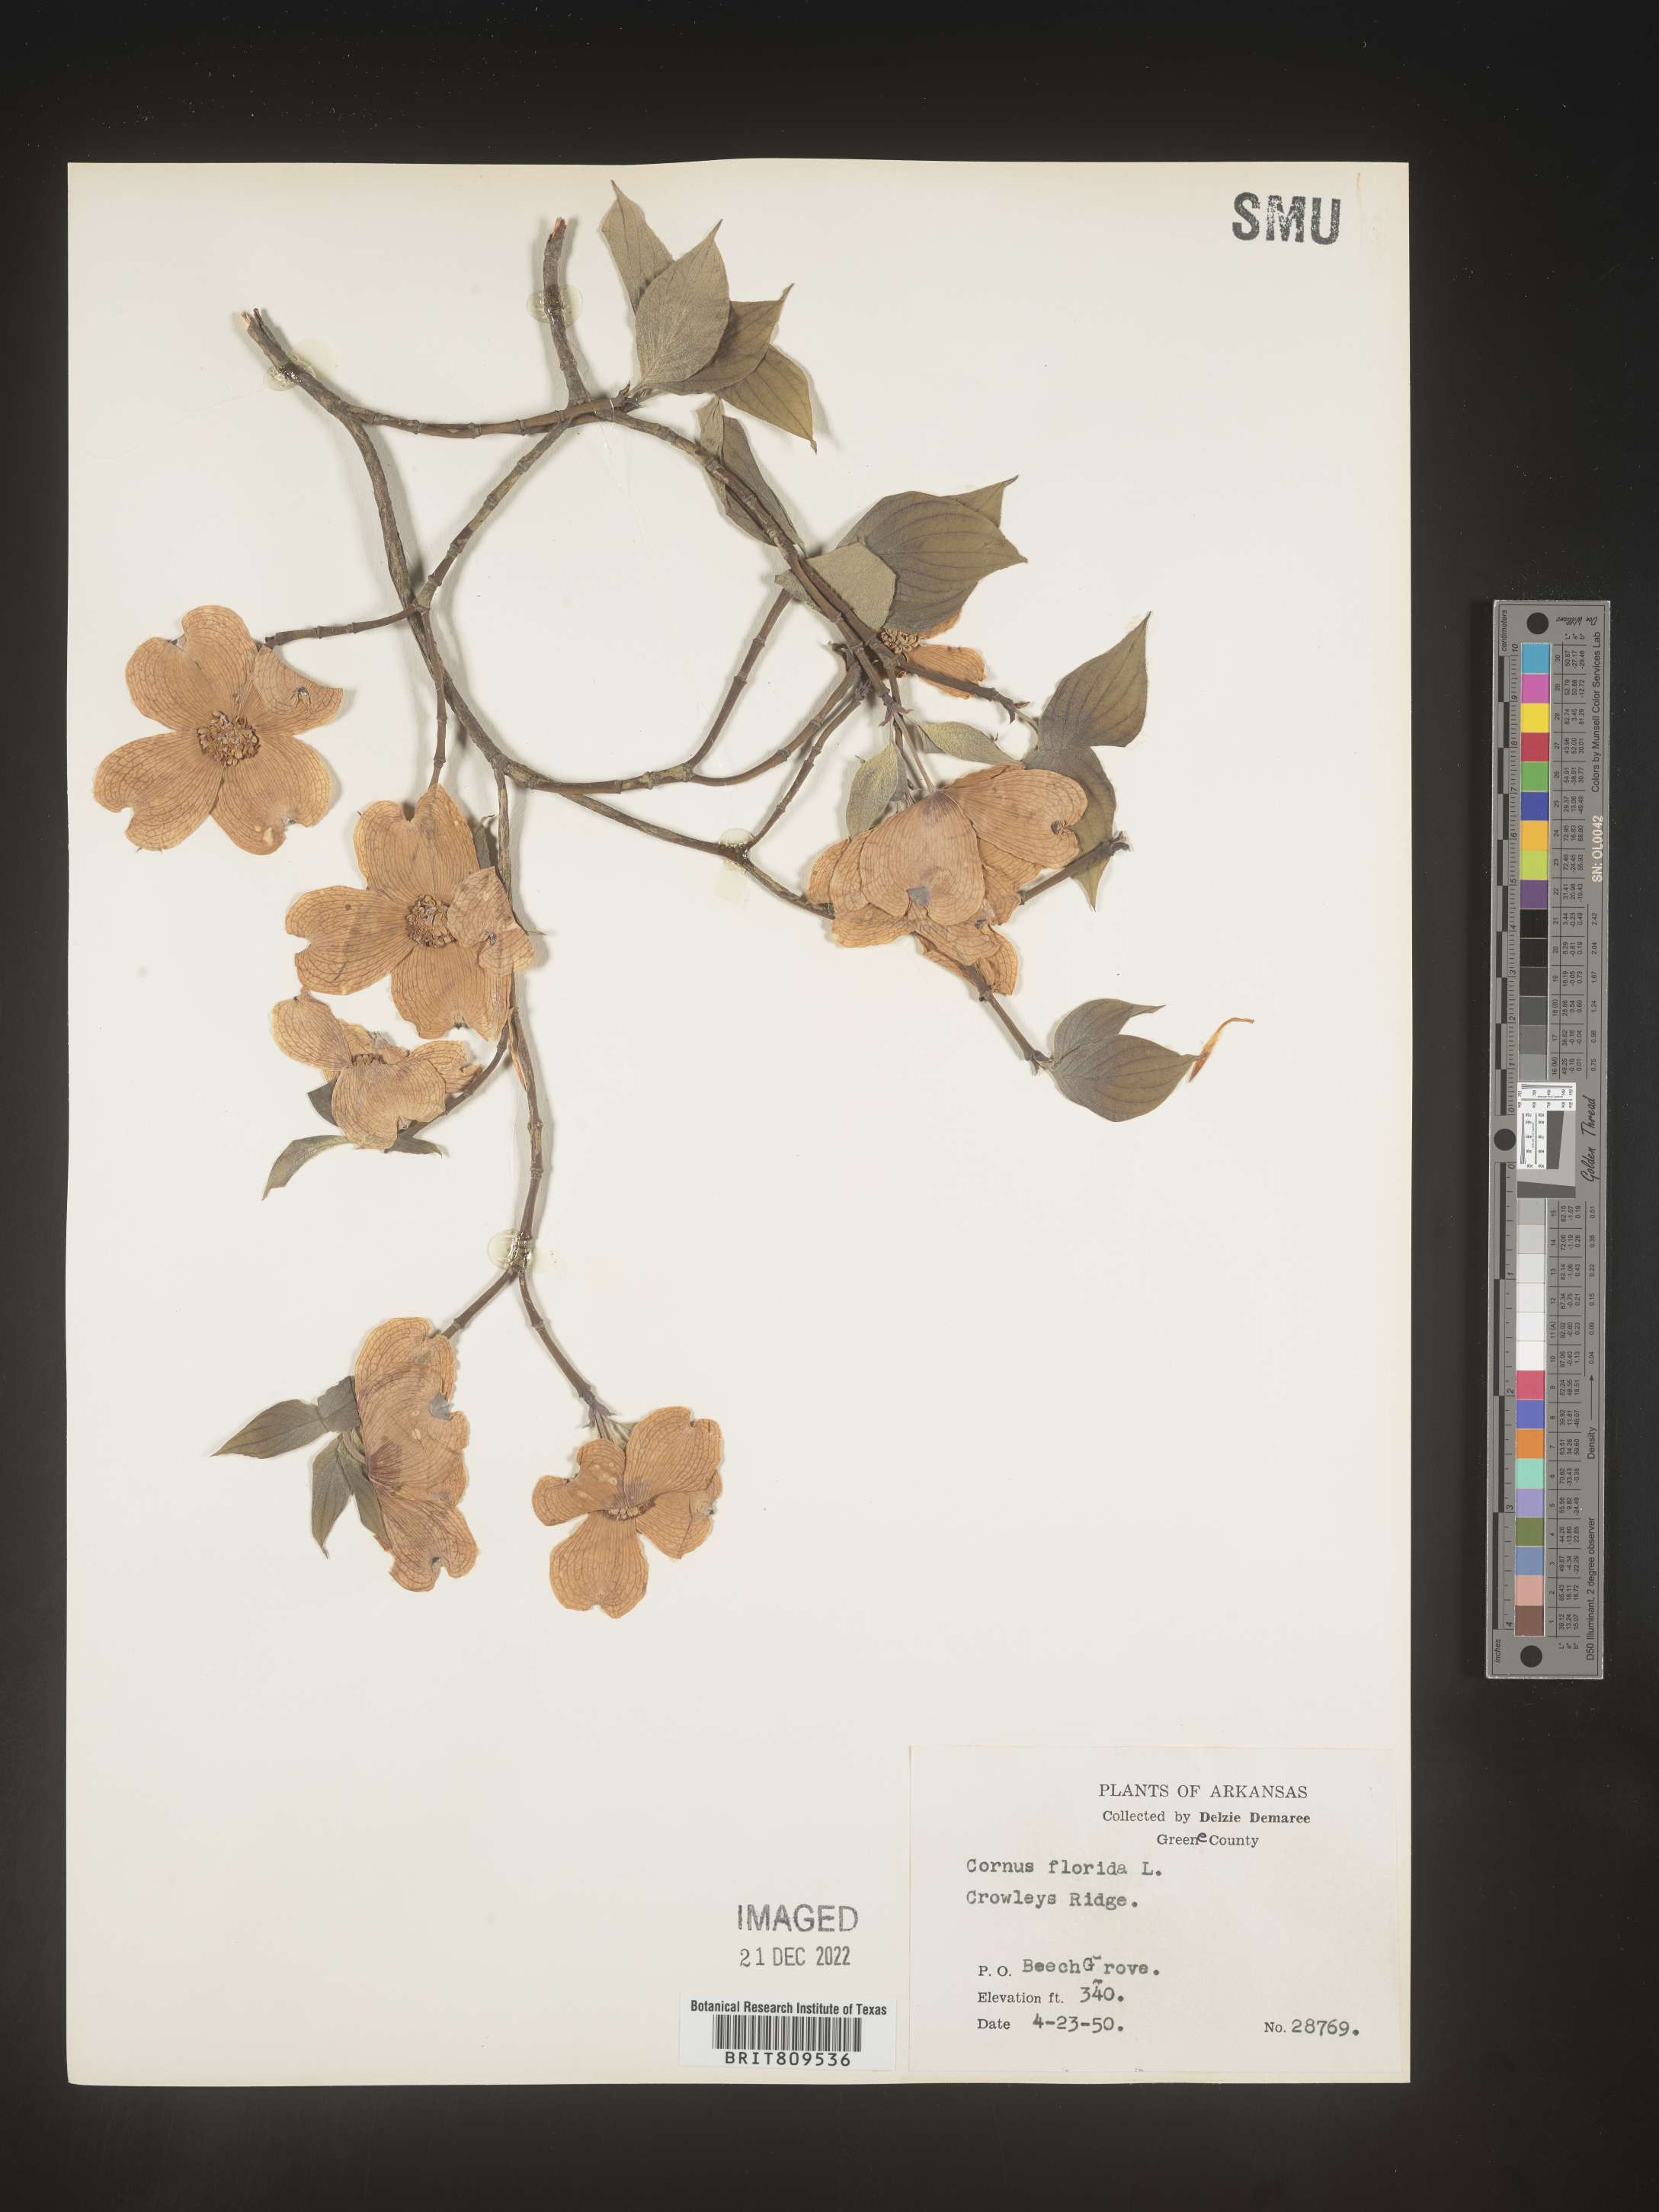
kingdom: Plantae
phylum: Tracheophyta
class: Magnoliopsida
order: Cornales
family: Cornaceae
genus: Cornus
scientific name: Cornus florida
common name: Flowering dogwood
